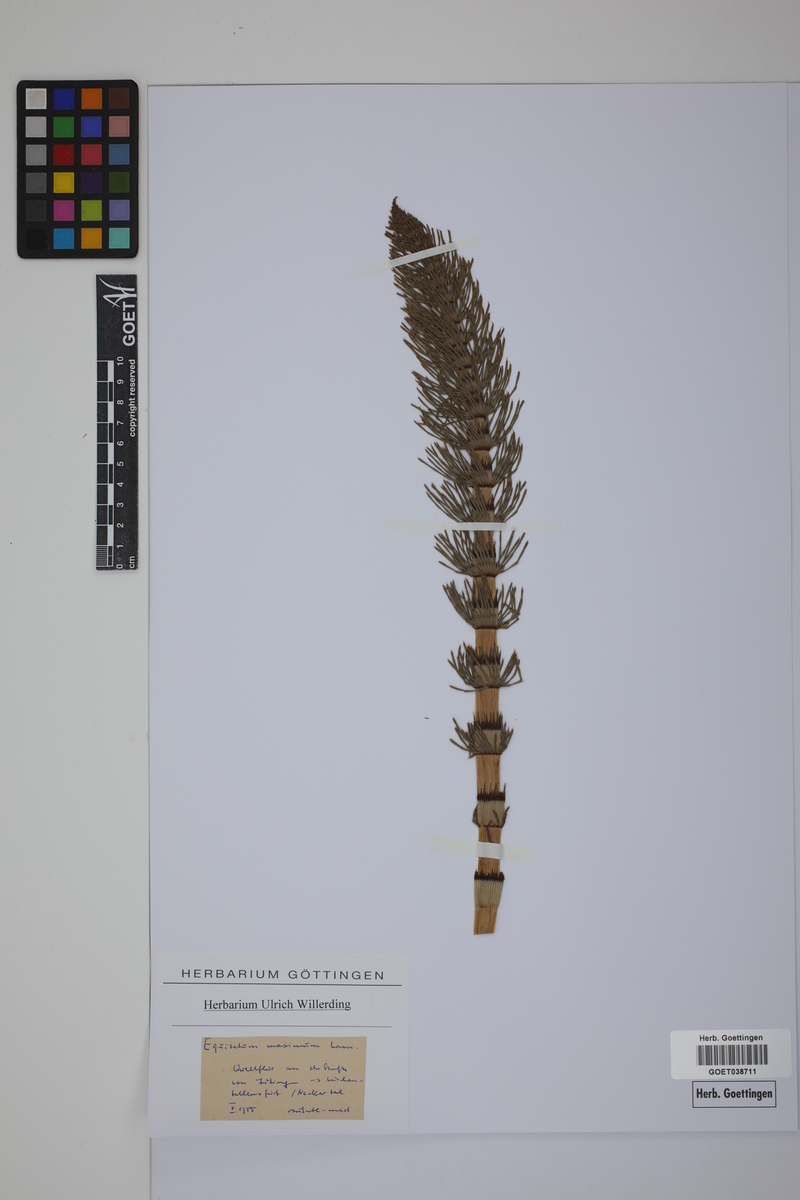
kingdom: Plantae
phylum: Tracheophyta
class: Polypodiopsida
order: Equisetales
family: Equisetaceae
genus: Equisetum
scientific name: Equisetum fluviatile
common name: Water horsetail
